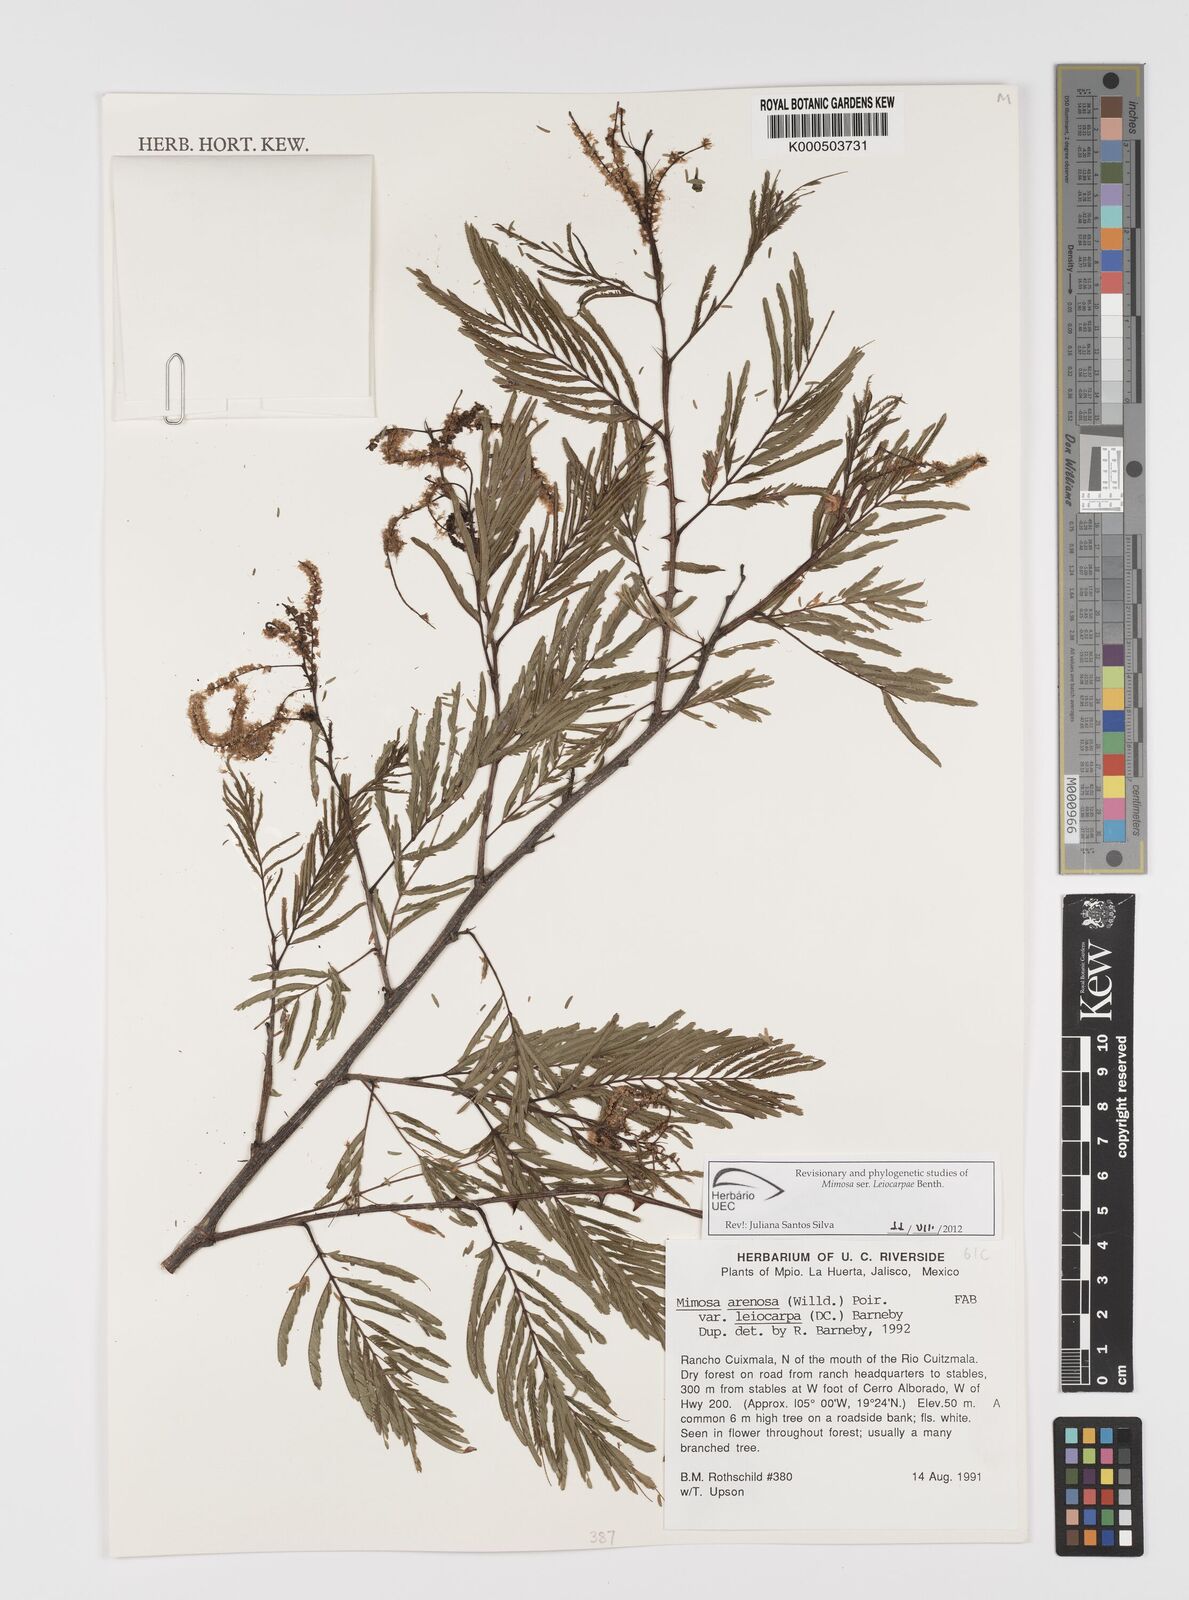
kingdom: Plantae
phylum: Tracheophyta
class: Magnoliopsida
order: Fabales
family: Fabaceae
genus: Mimosa
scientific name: Mimosa arenosa
